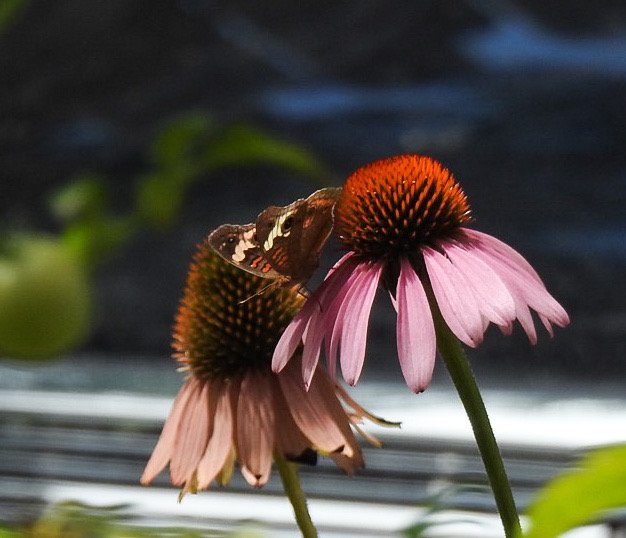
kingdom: Animalia
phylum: Arthropoda
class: Insecta
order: Lepidoptera
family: Nymphalidae
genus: Junonia
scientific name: Junonia coenia
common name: Common Buckeye
